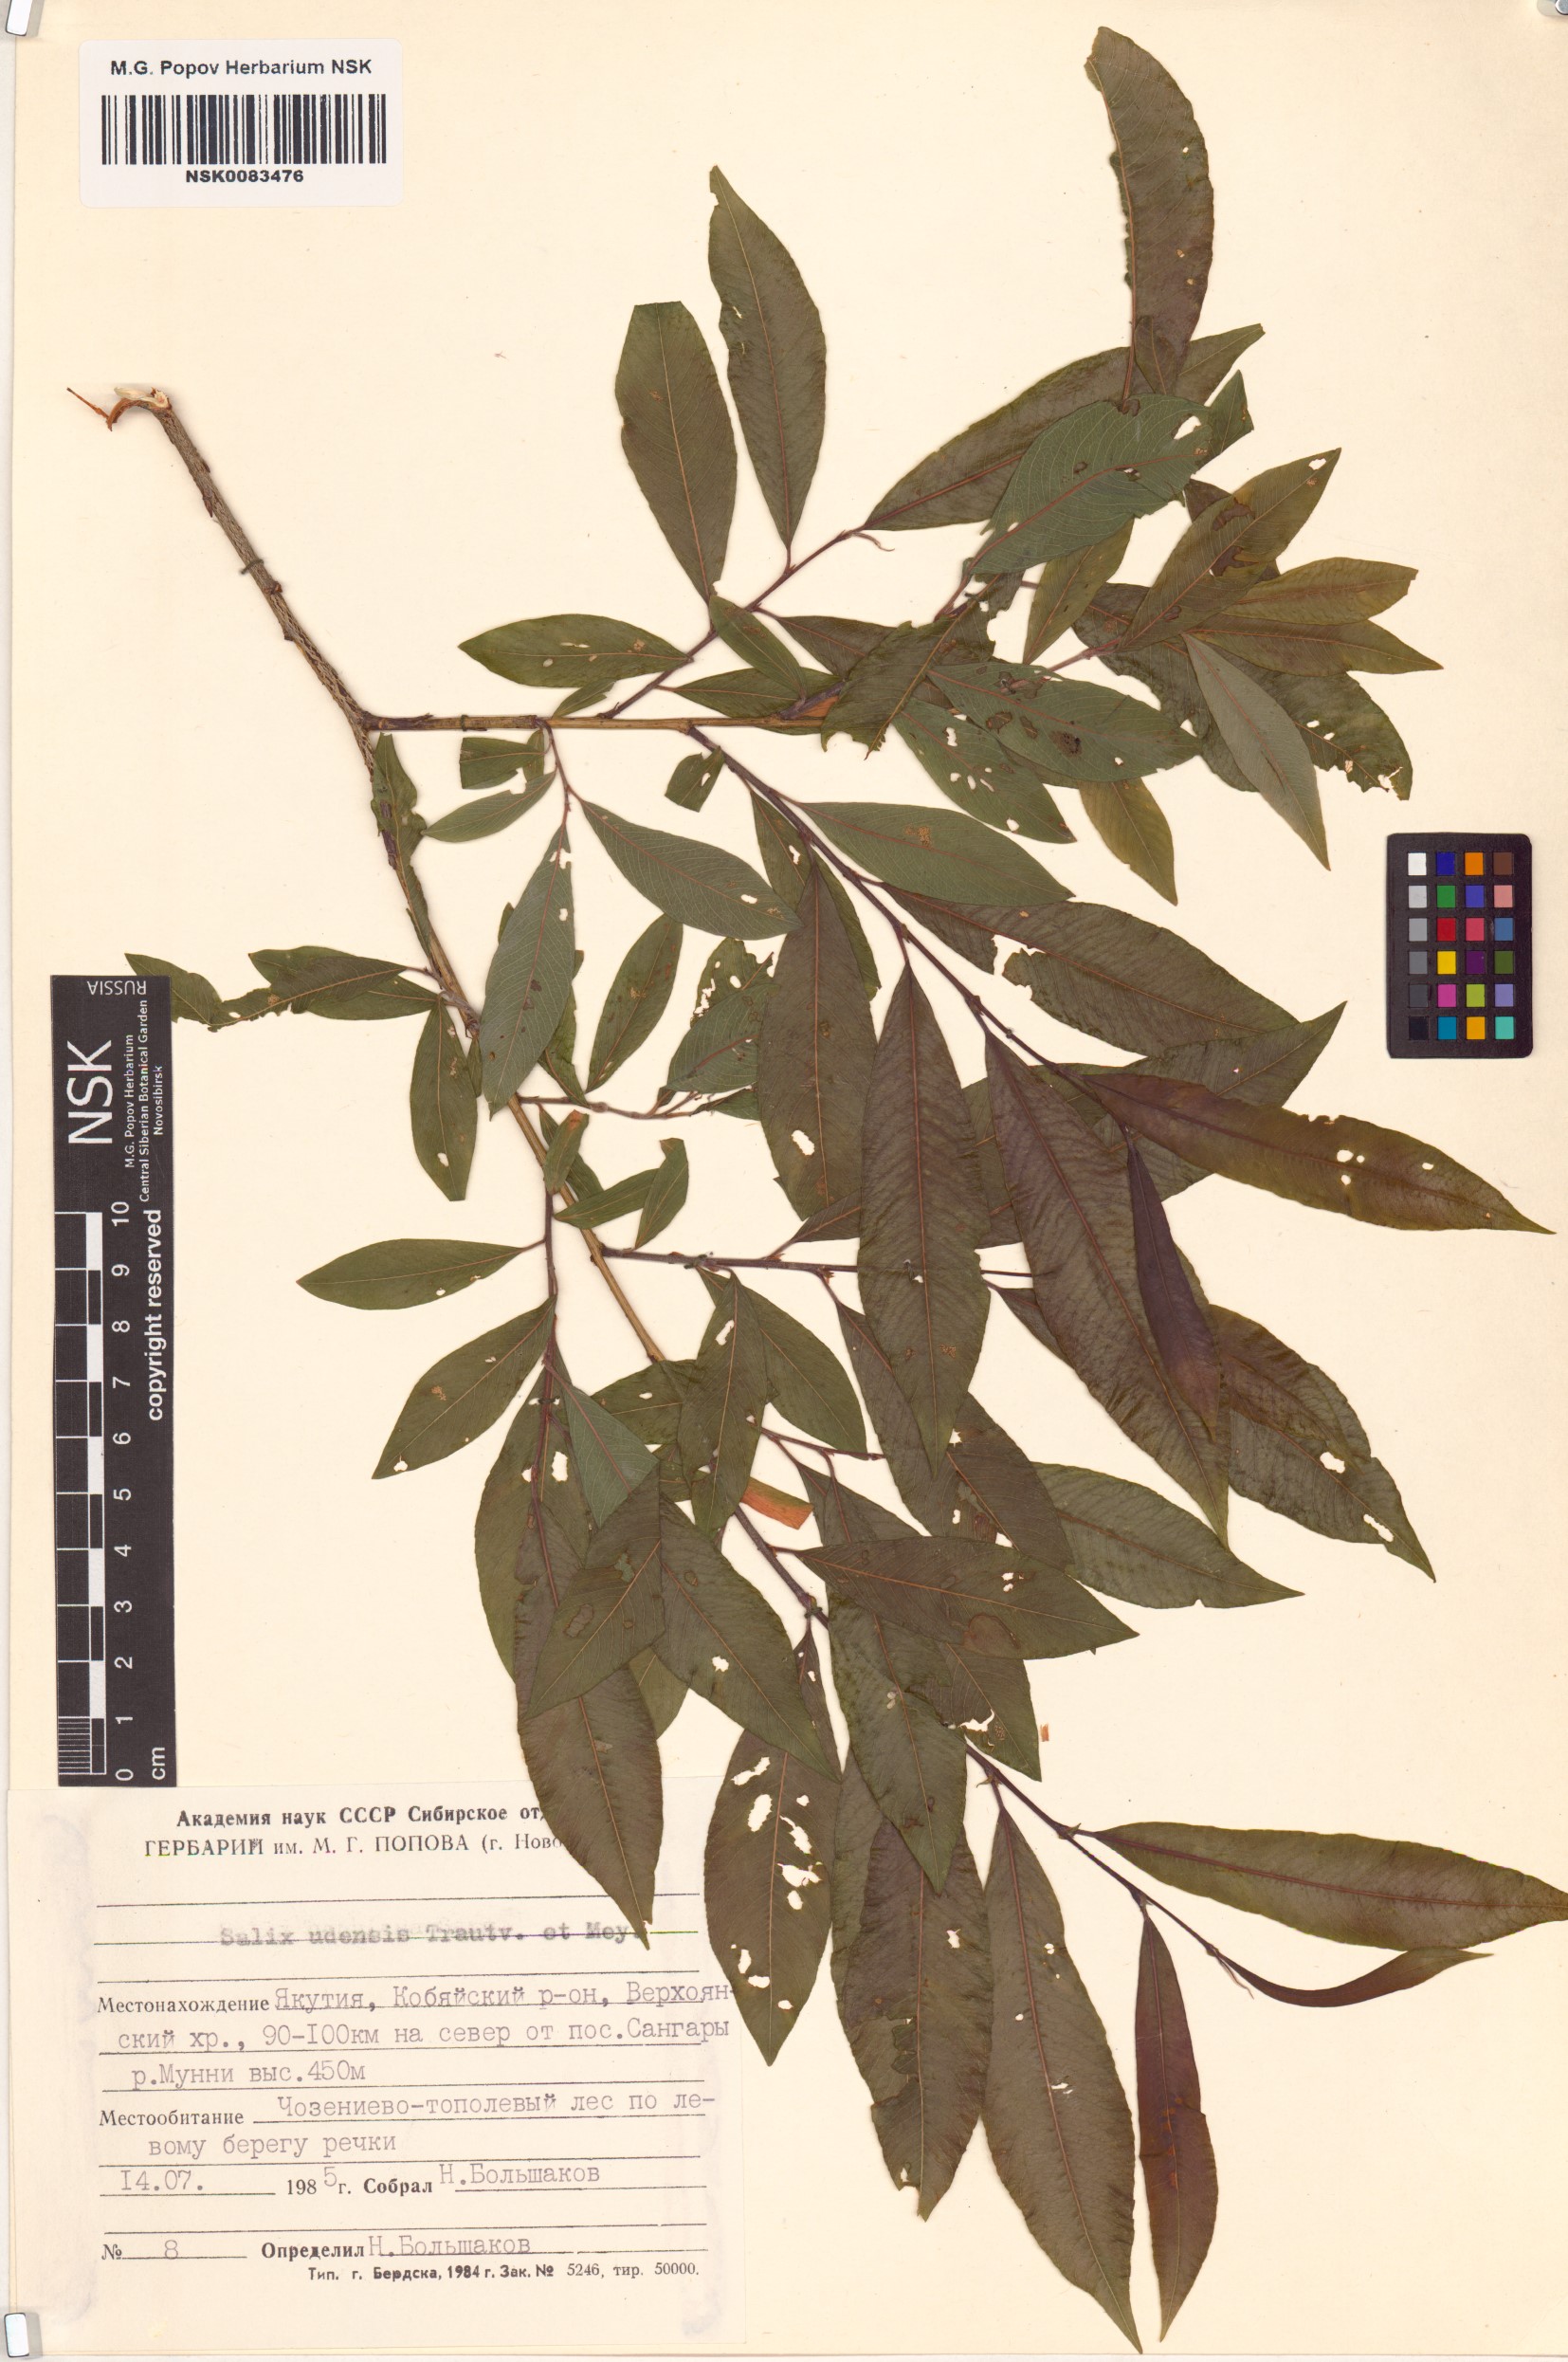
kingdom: Plantae
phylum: Tracheophyta
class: Magnoliopsida
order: Malpighiales
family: Salicaceae
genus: Salix
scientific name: Salix udensis
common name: Sachalin willow
